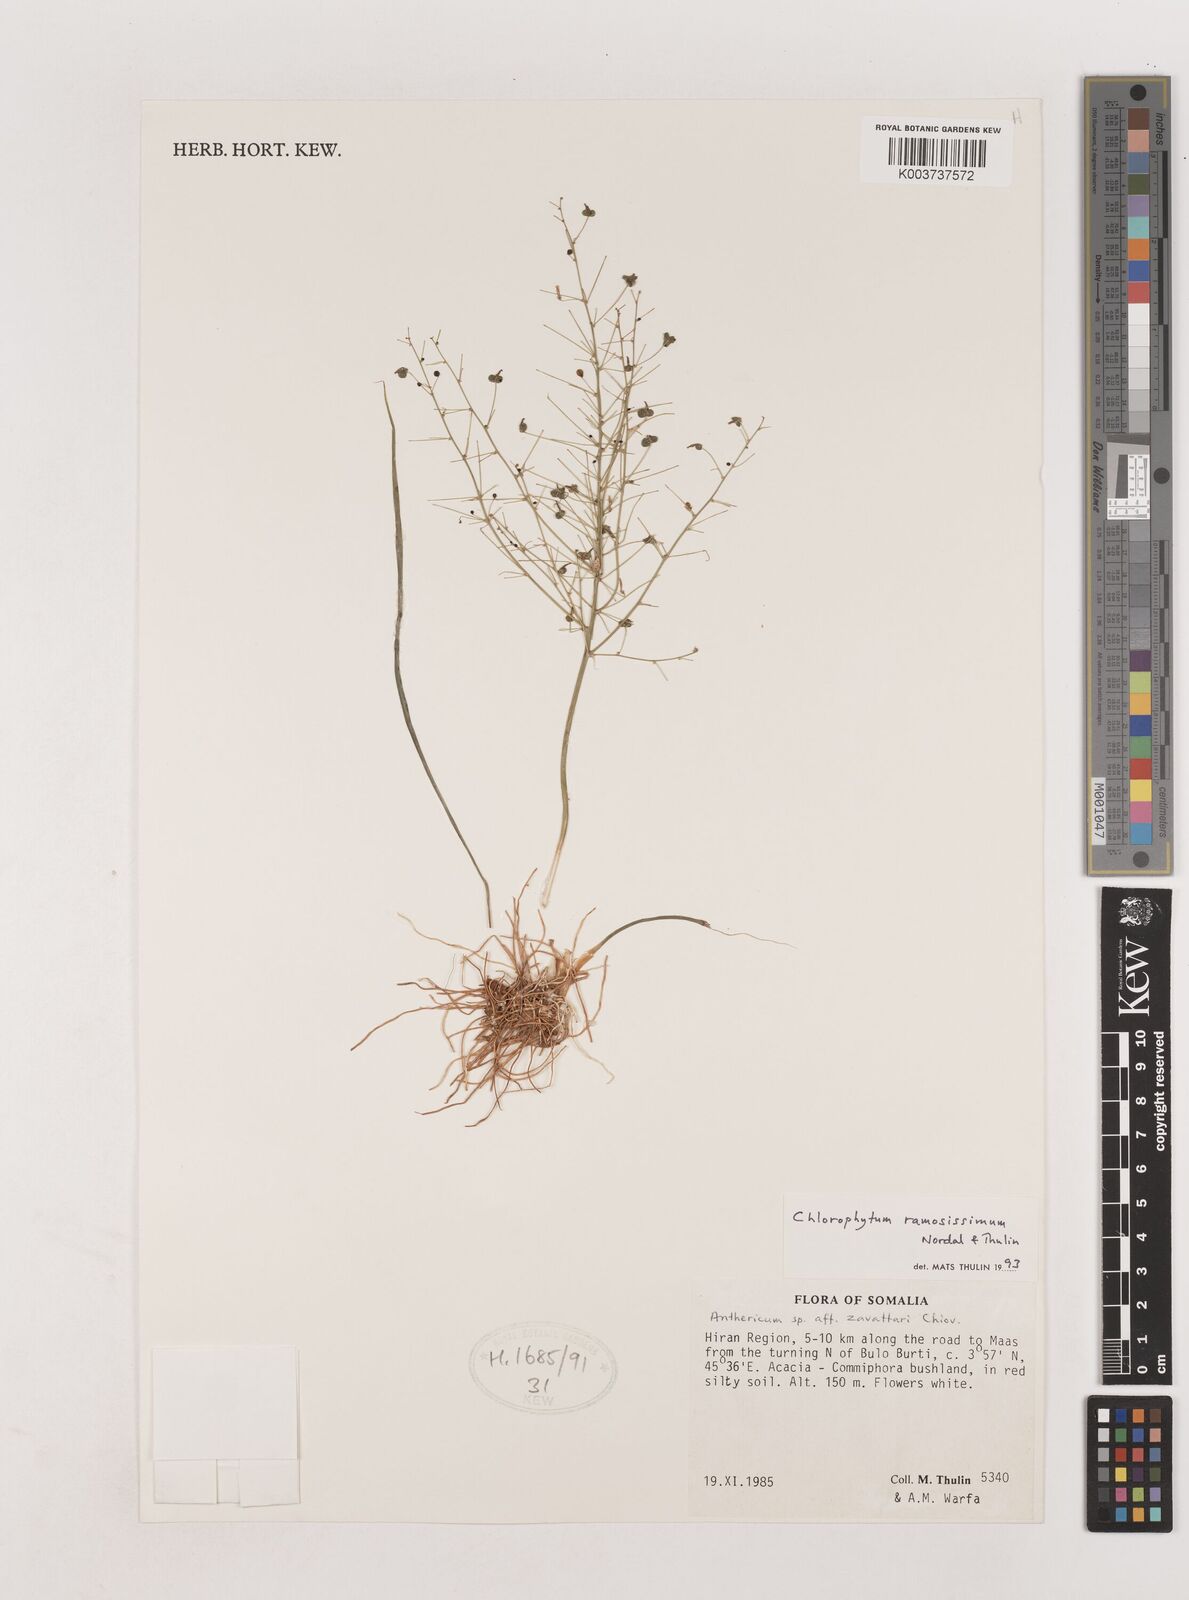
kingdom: Plantae
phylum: Tracheophyta
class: Liliopsida
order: Asparagales
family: Asparagaceae
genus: Chlorophytum
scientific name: Chlorophytum ramosissimum
